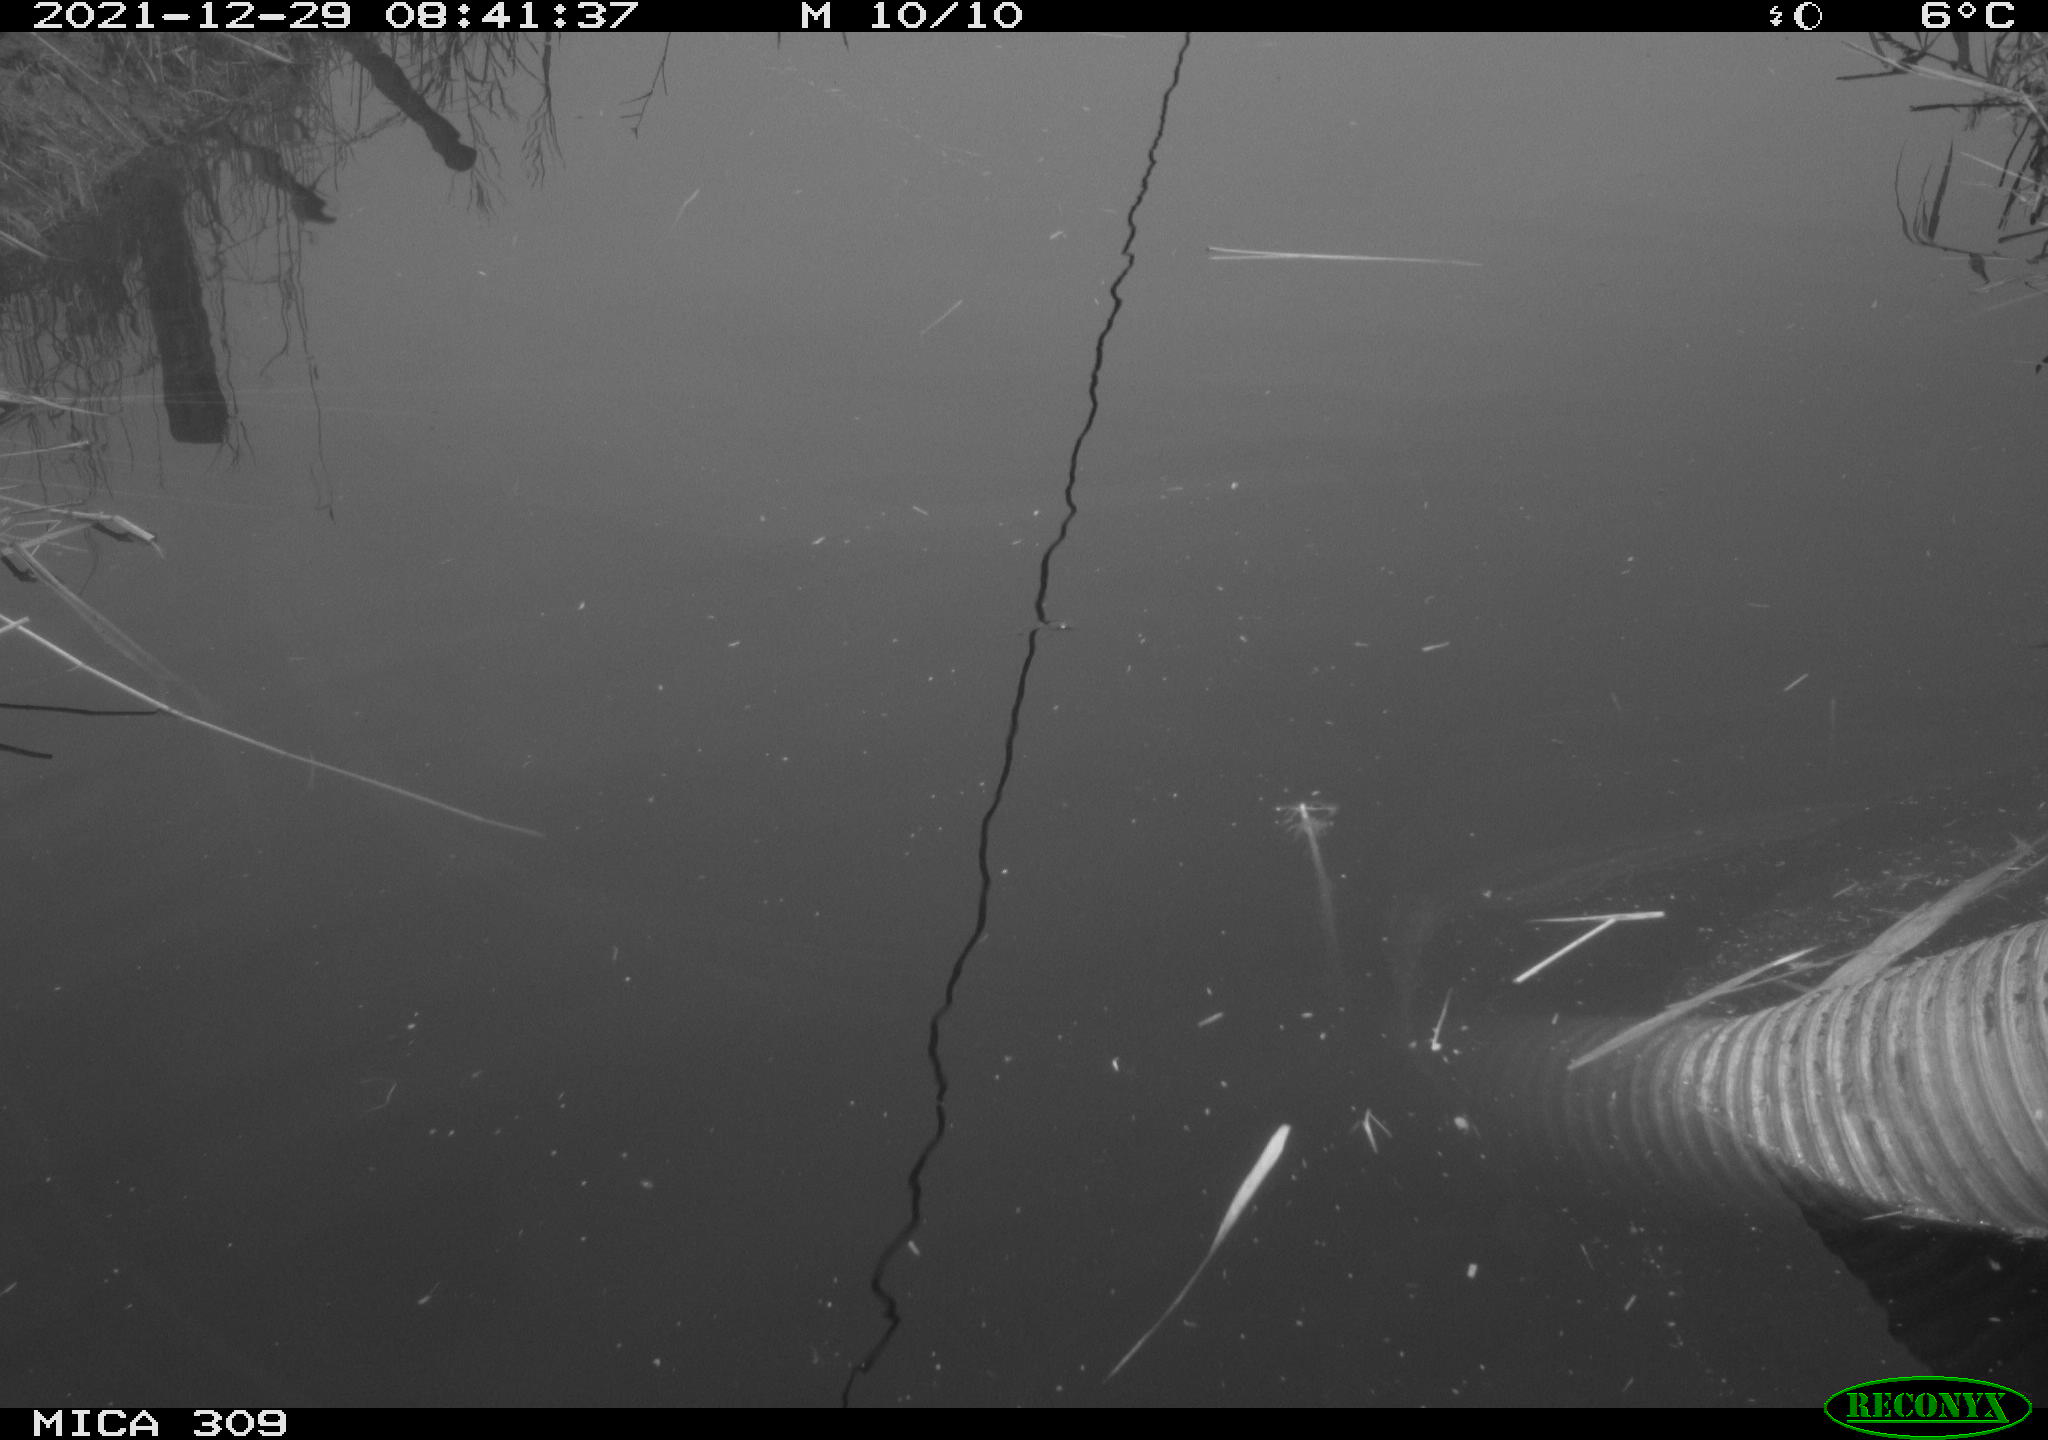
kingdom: Animalia
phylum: Chordata
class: Aves
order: Gruiformes
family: Rallidae
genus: Gallinula
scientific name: Gallinula chloropus
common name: Common moorhen
